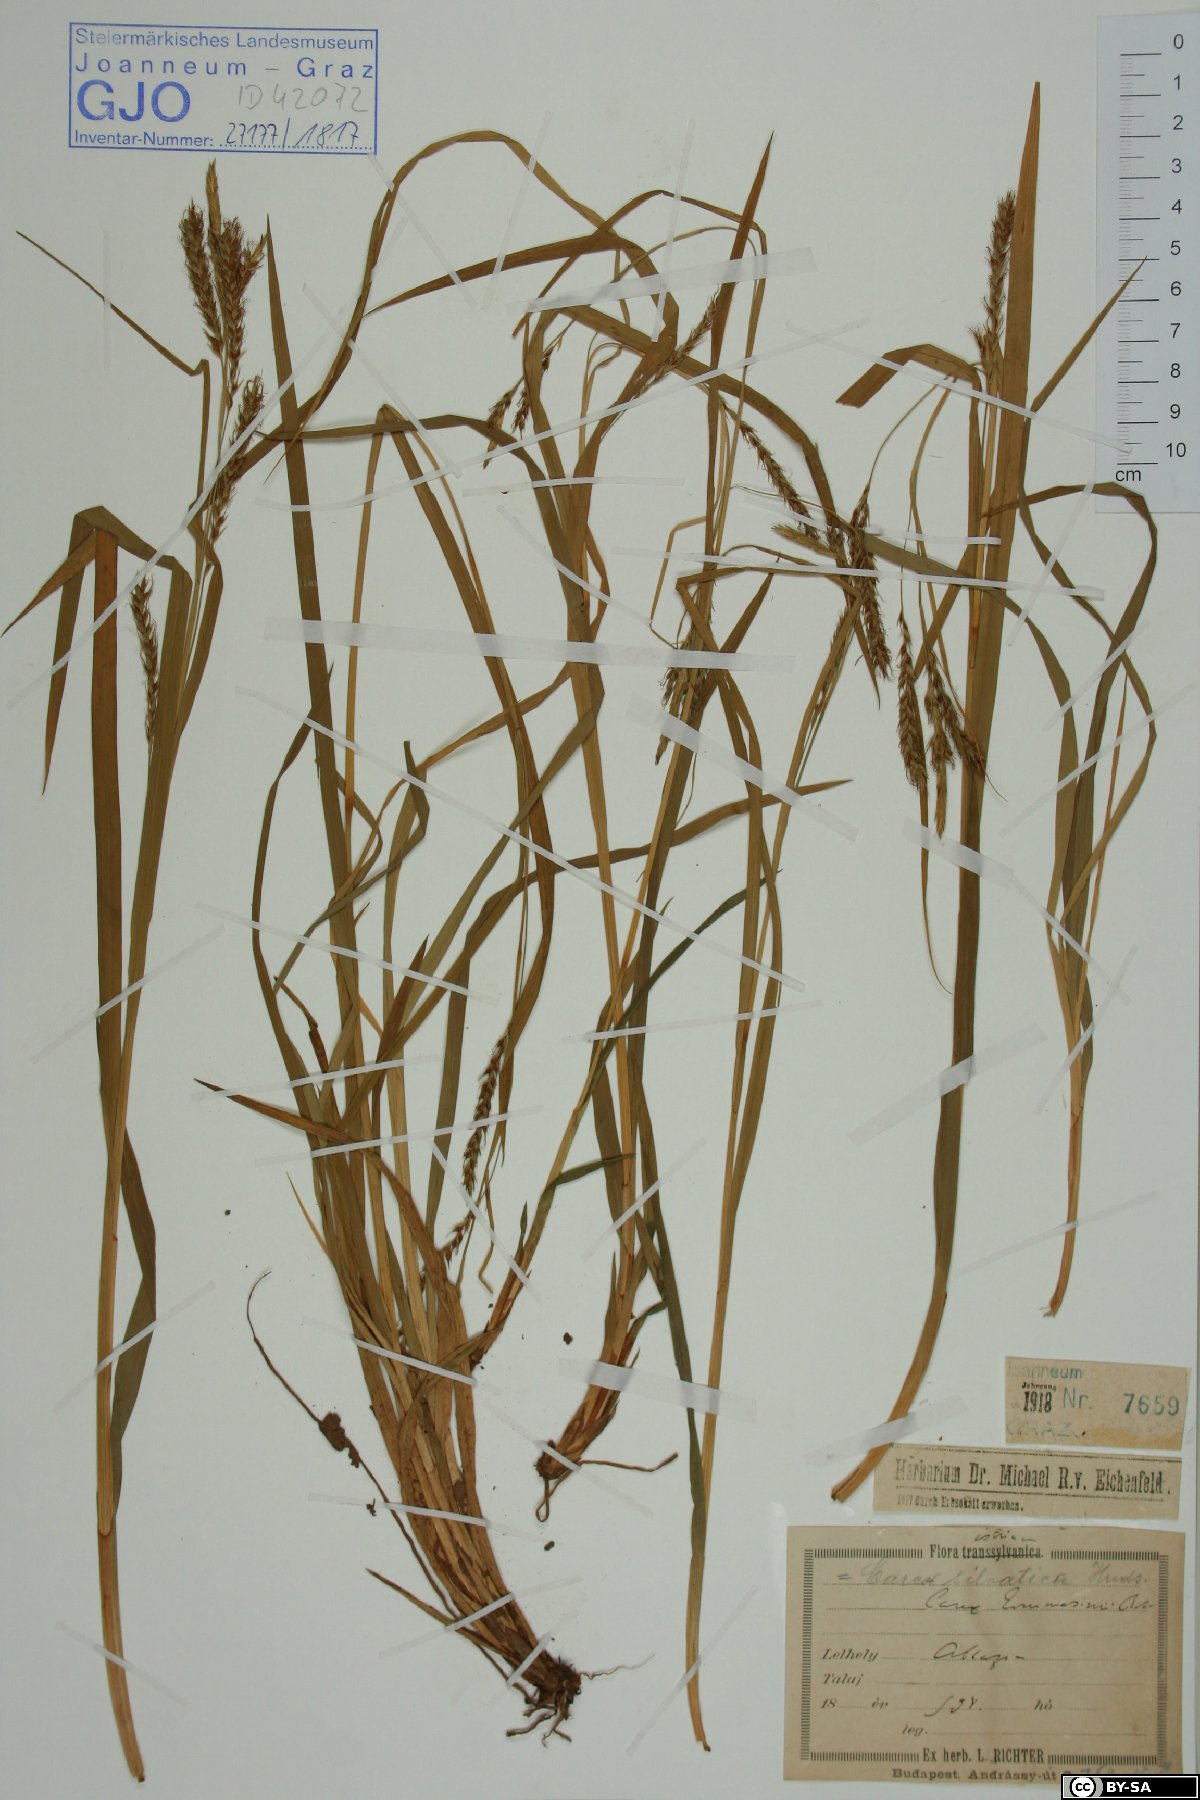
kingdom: Plantae
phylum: Tracheophyta
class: Liliopsida
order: Poales
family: Cyperaceae
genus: Carex
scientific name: Carex sylvatica
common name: Wood-sedge
